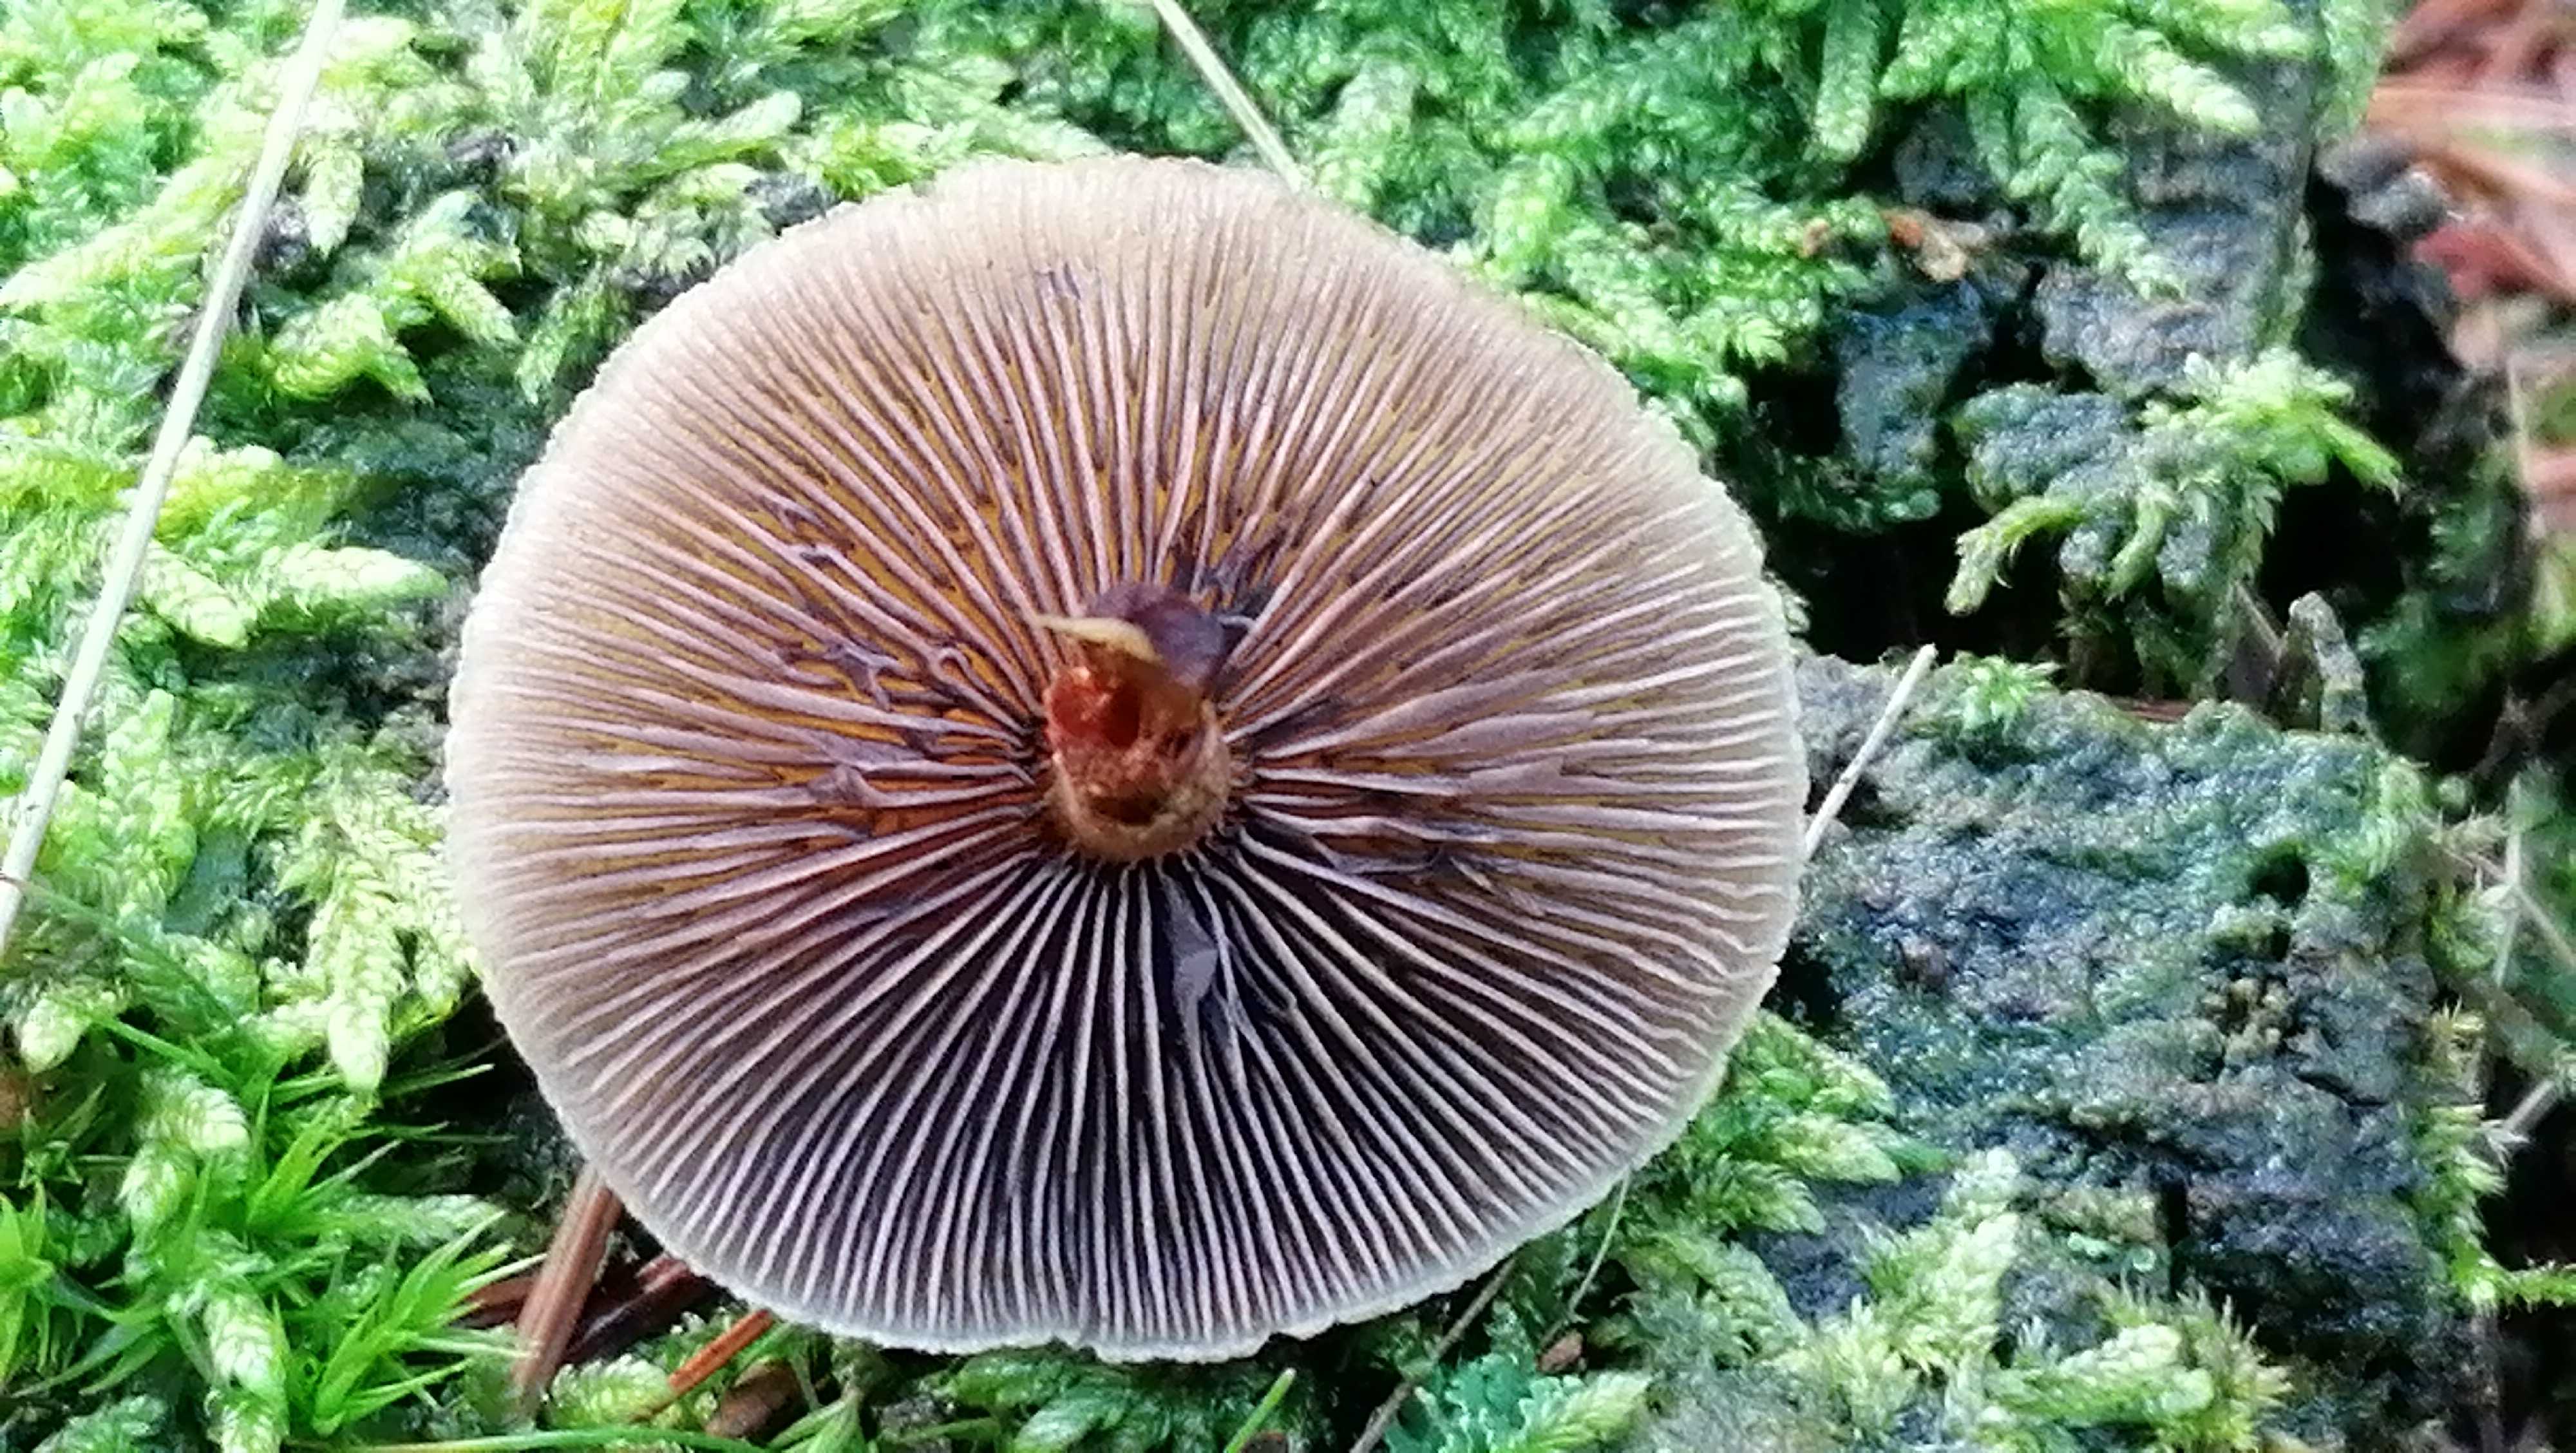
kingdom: Fungi
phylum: Basidiomycota
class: Agaricomycetes
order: Agaricales
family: Strophariaceae
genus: Hypholoma
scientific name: Hypholoma capnoides
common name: gran-svovlhat
